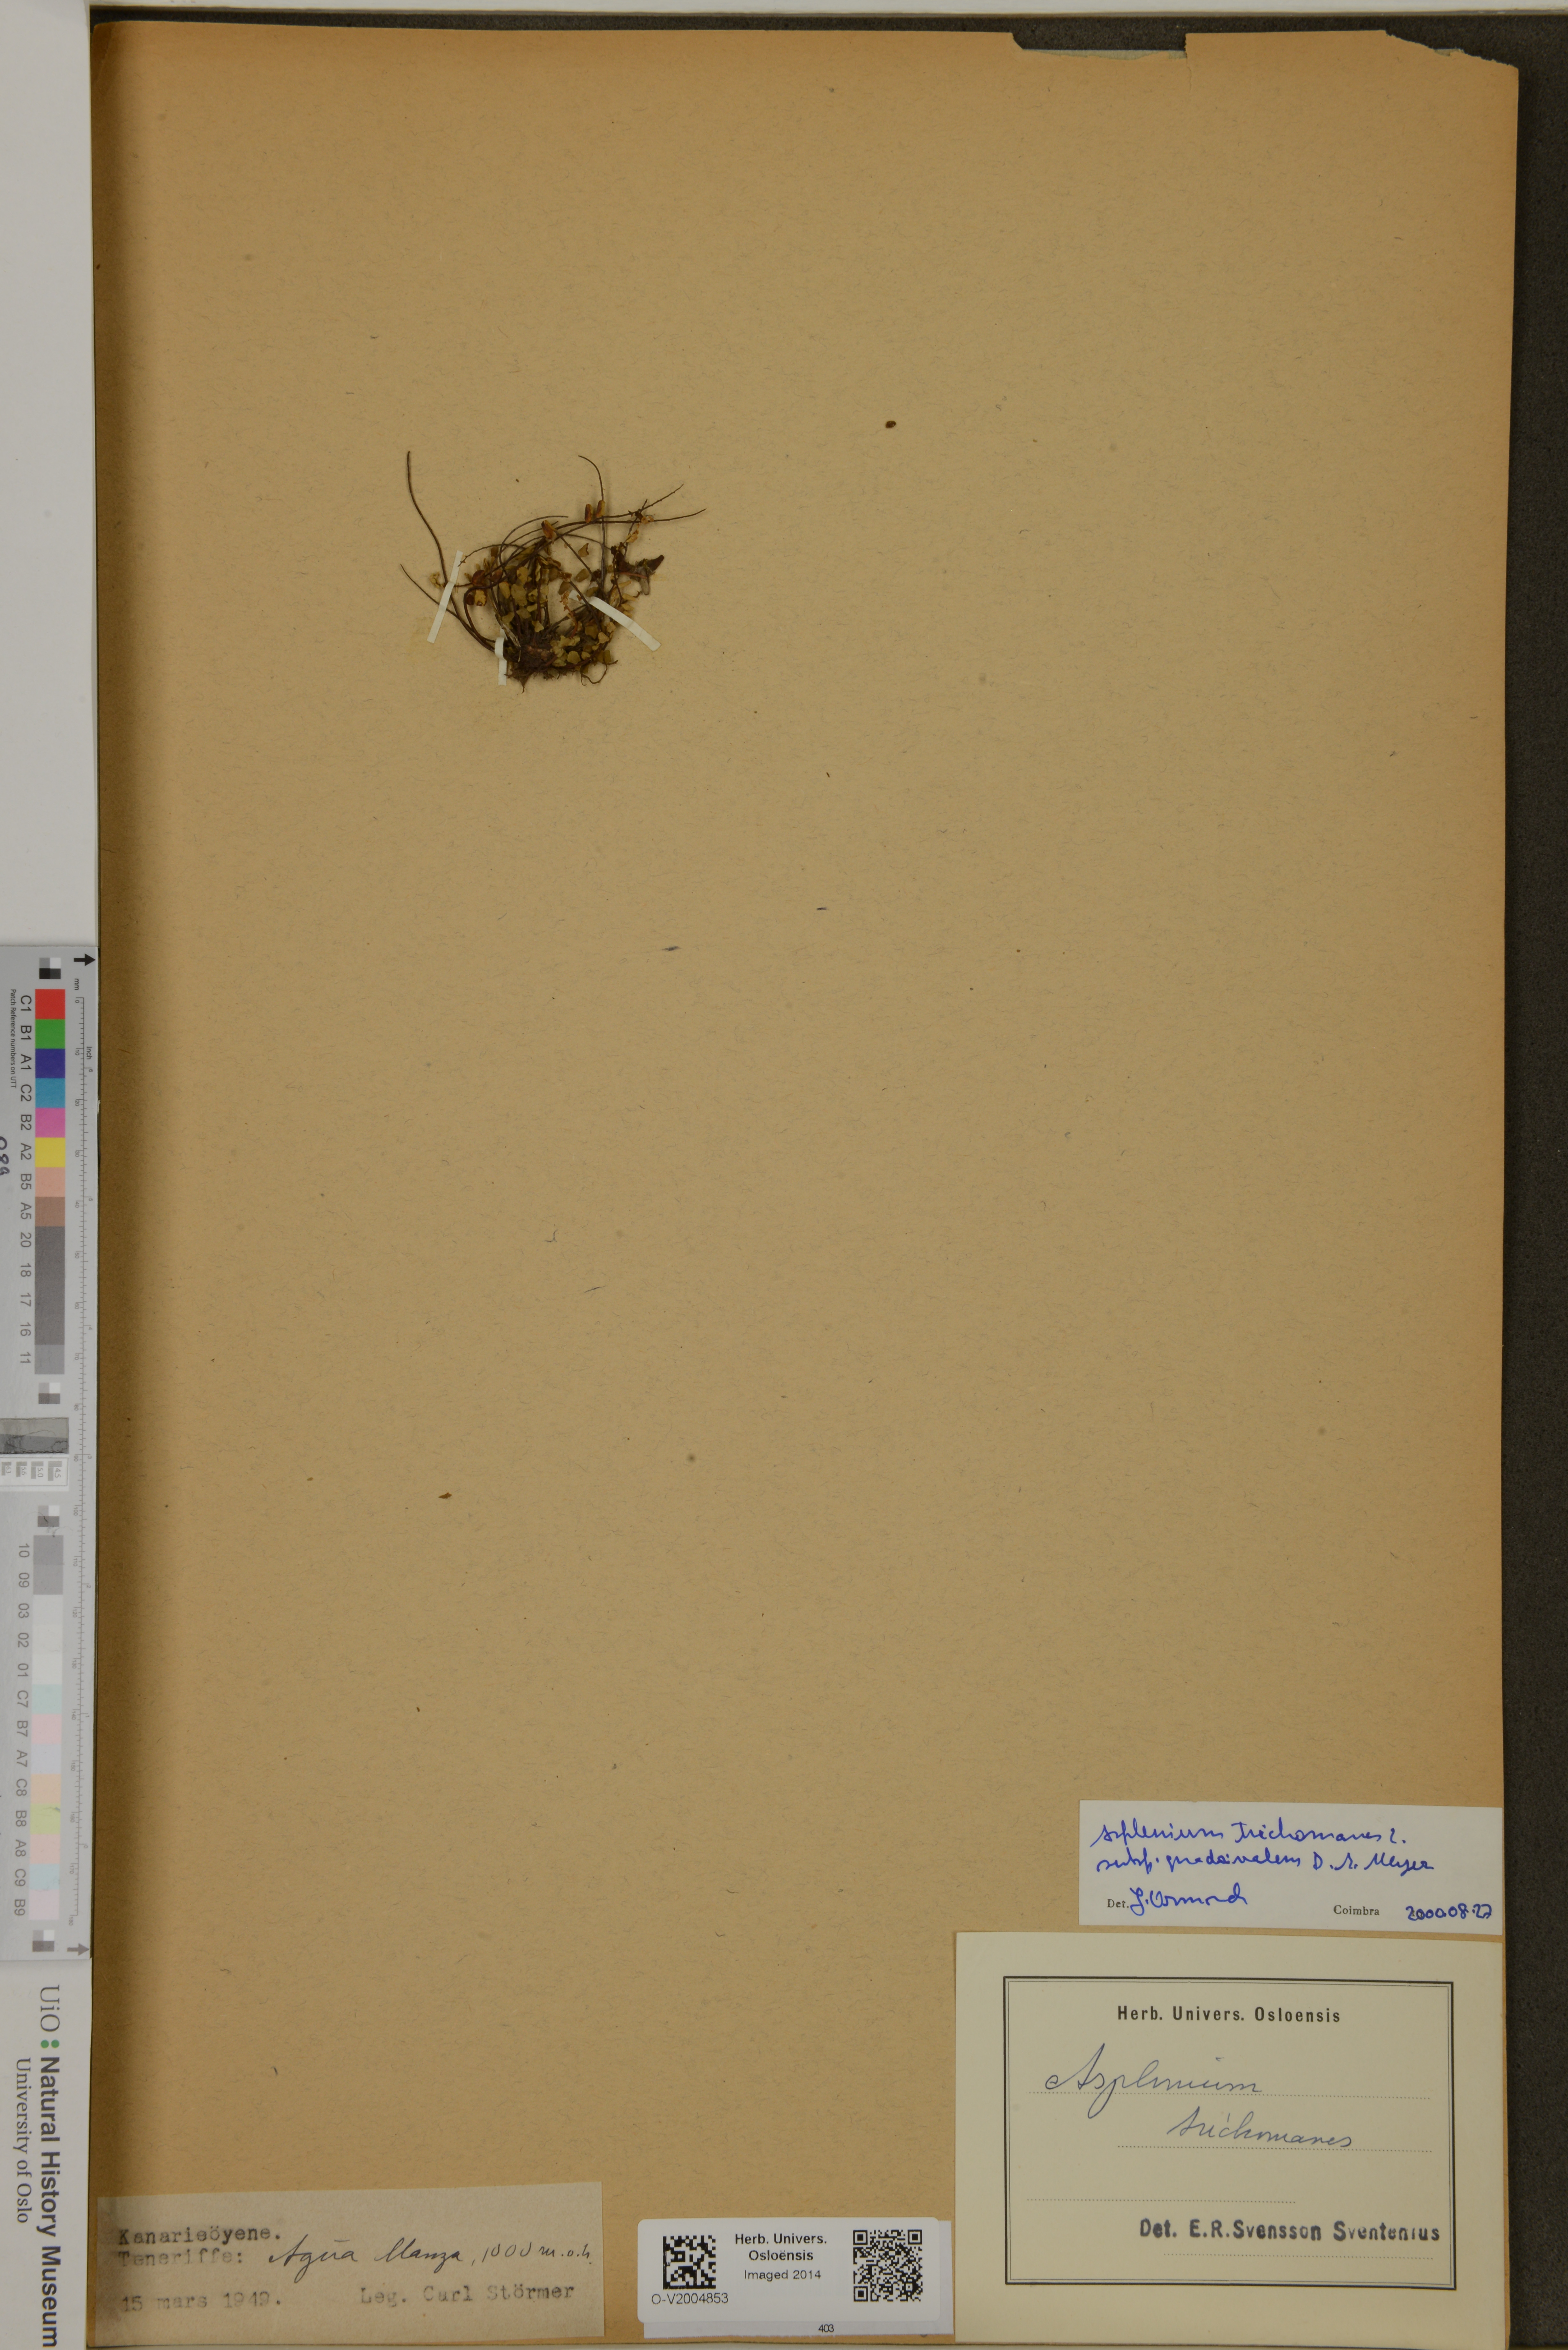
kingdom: Plantae
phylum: Tracheophyta
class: Polypodiopsida
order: Polypodiales
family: Aspleniaceae
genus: Asplenium
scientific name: Asplenium quadrivalens
